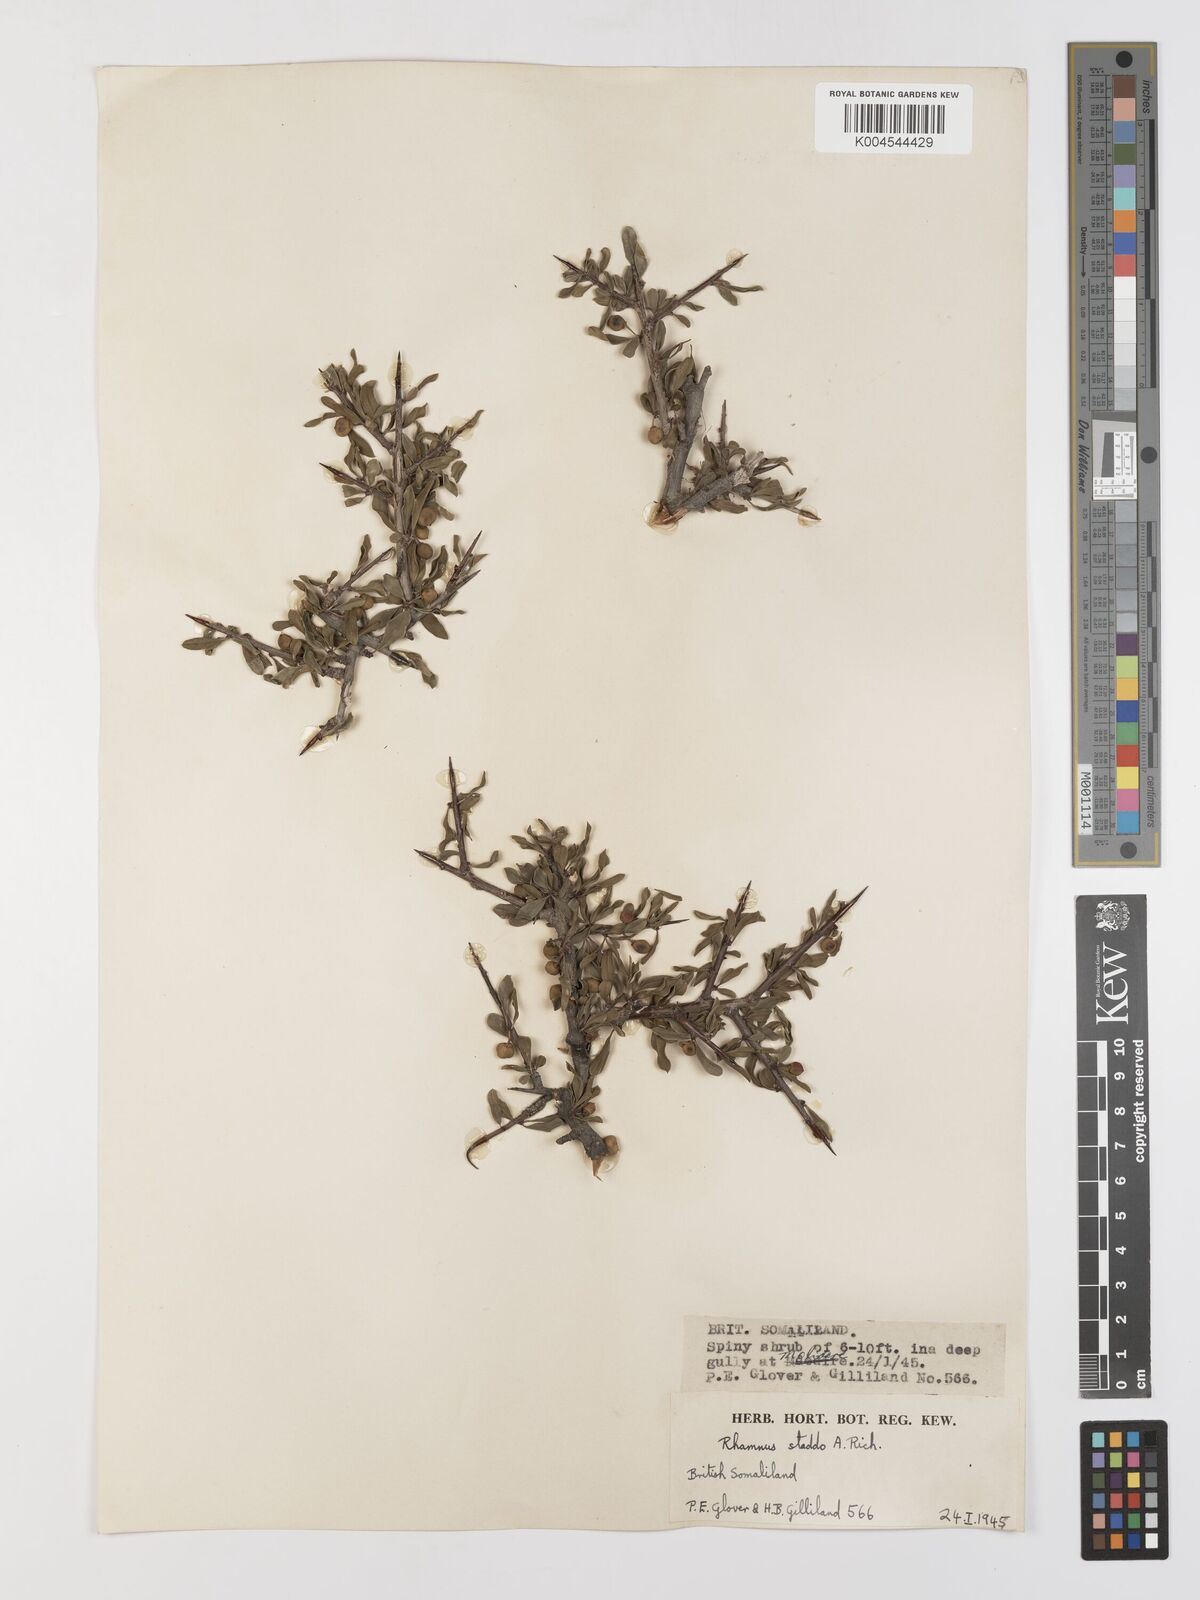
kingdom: Plantae
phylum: Tracheophyta
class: Magnoliopsida
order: Rosales
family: Rhamnaceae
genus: Rhamnus
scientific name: Rhamnus staddo
